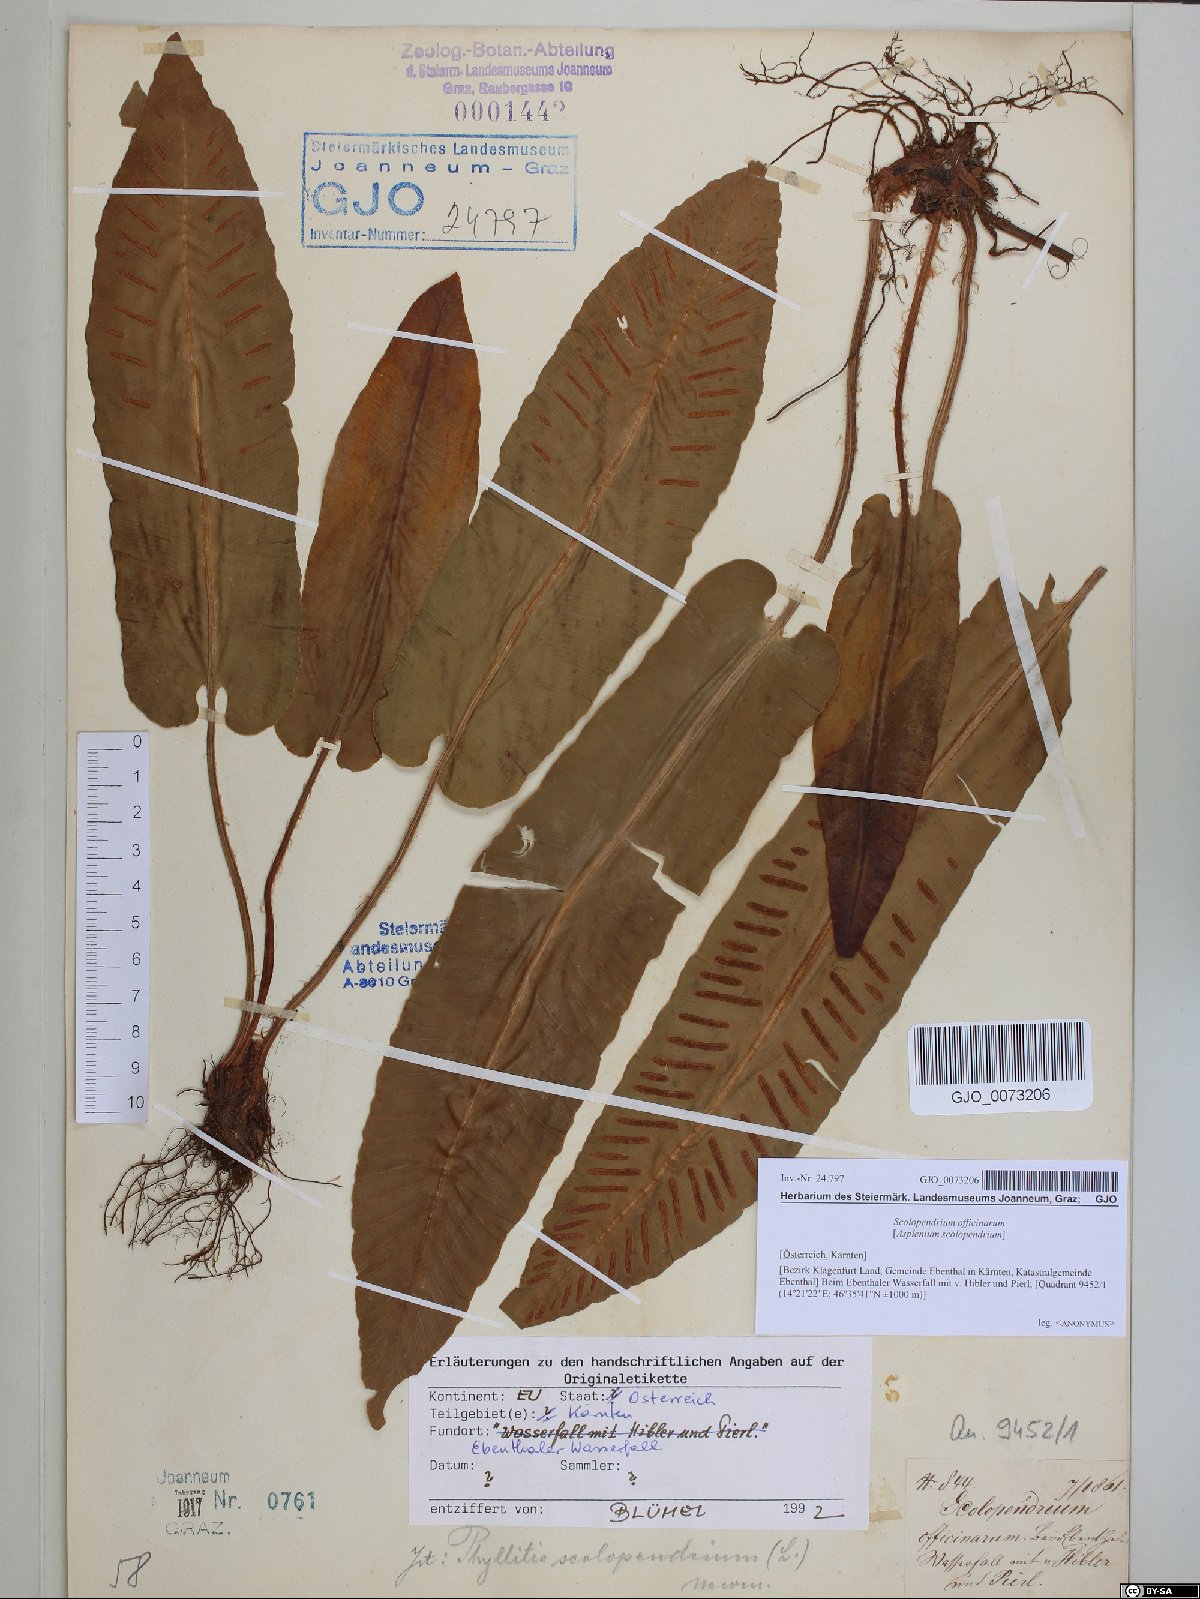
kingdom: Plantae
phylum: Tracheophyta
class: Polypodiopsida
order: Polypodiales
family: Aspleniaceae
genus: Asplenium
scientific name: Asplenium scolopendrium
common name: Hart's-tongue fern
